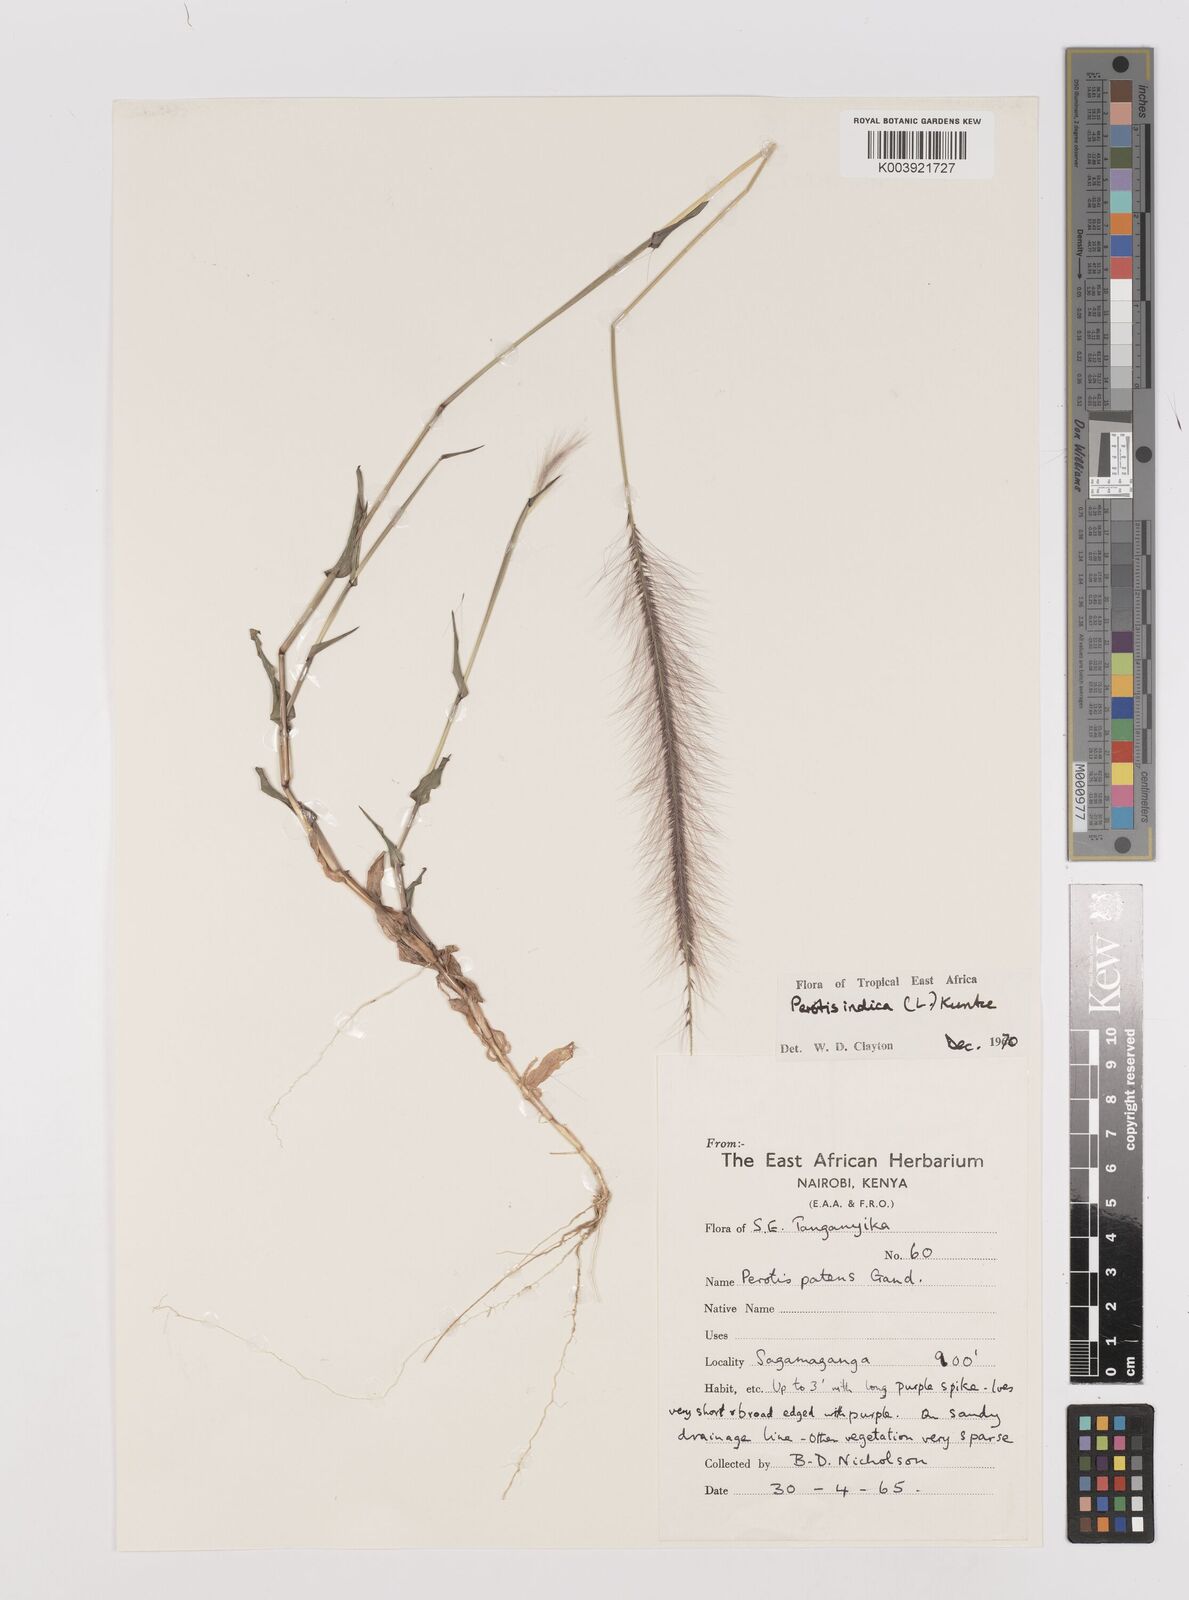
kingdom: Plantae
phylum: Tracheophyta
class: Liliopsida
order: Poales
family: Poaceae
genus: Perotis
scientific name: Perotis indica
